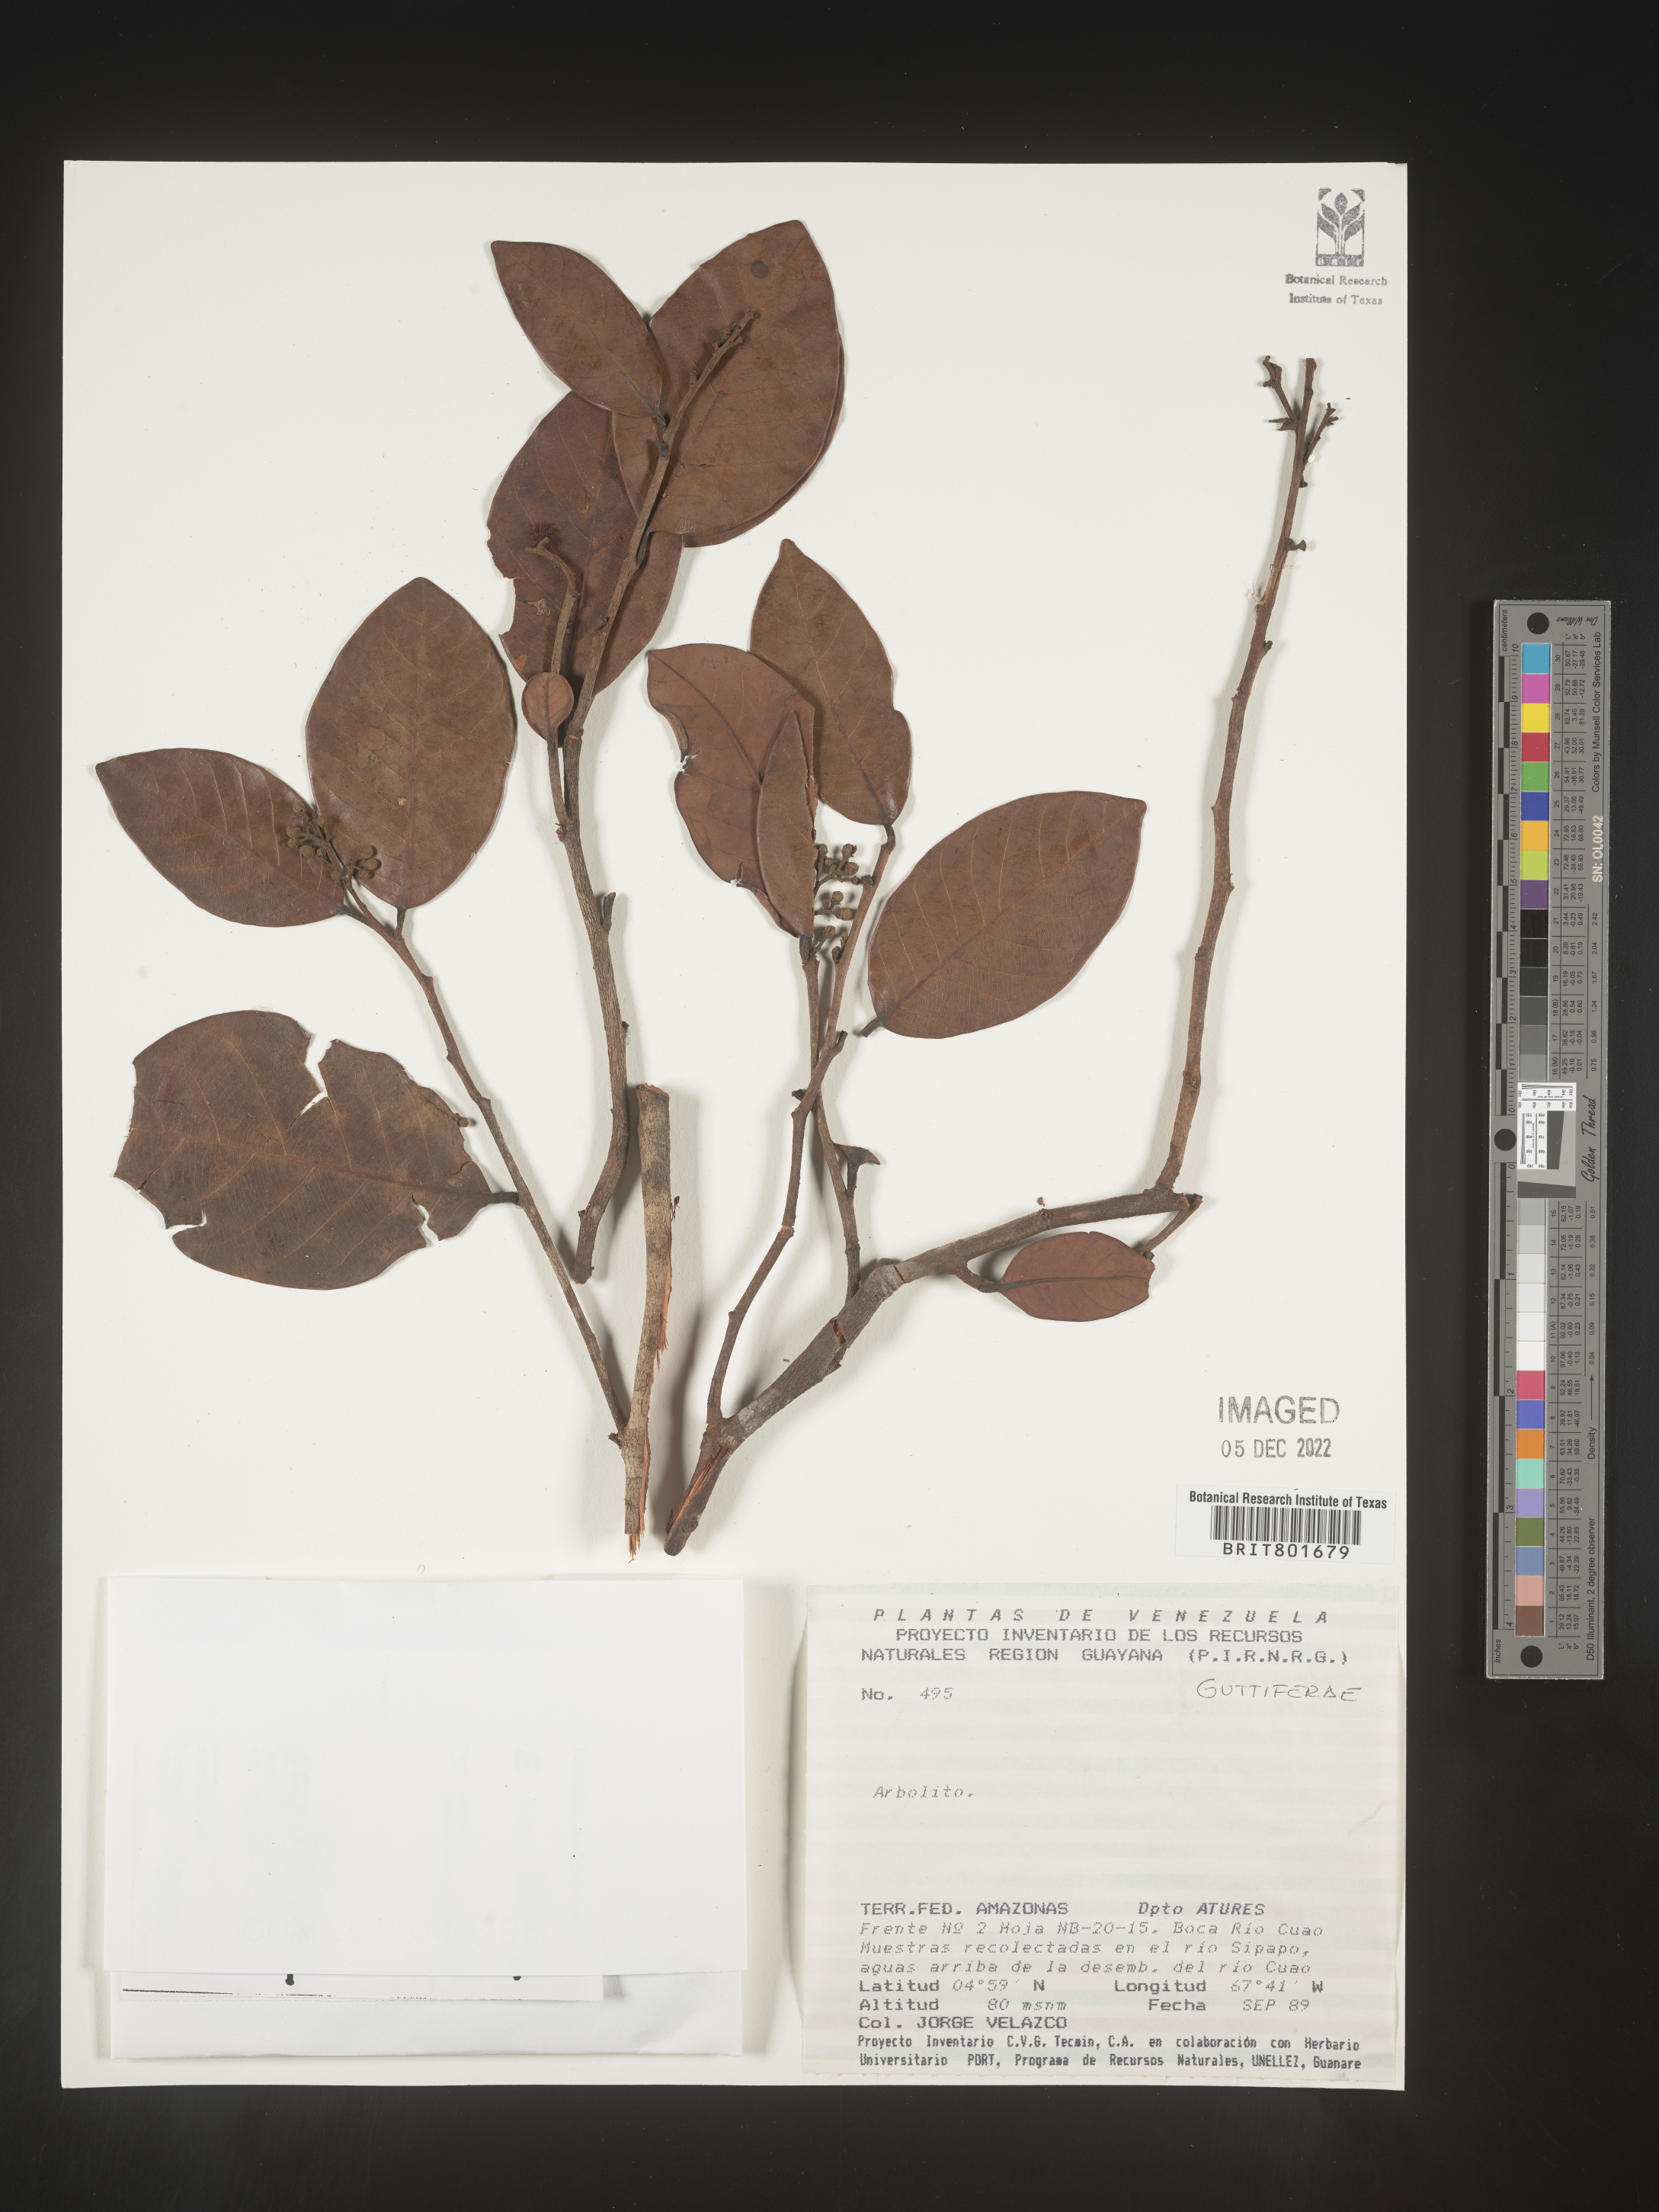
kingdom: Plantae
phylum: Tracheophyta
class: Magnoliopsida
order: Malpighiales
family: Clusiaceae
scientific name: Clusiaceae
